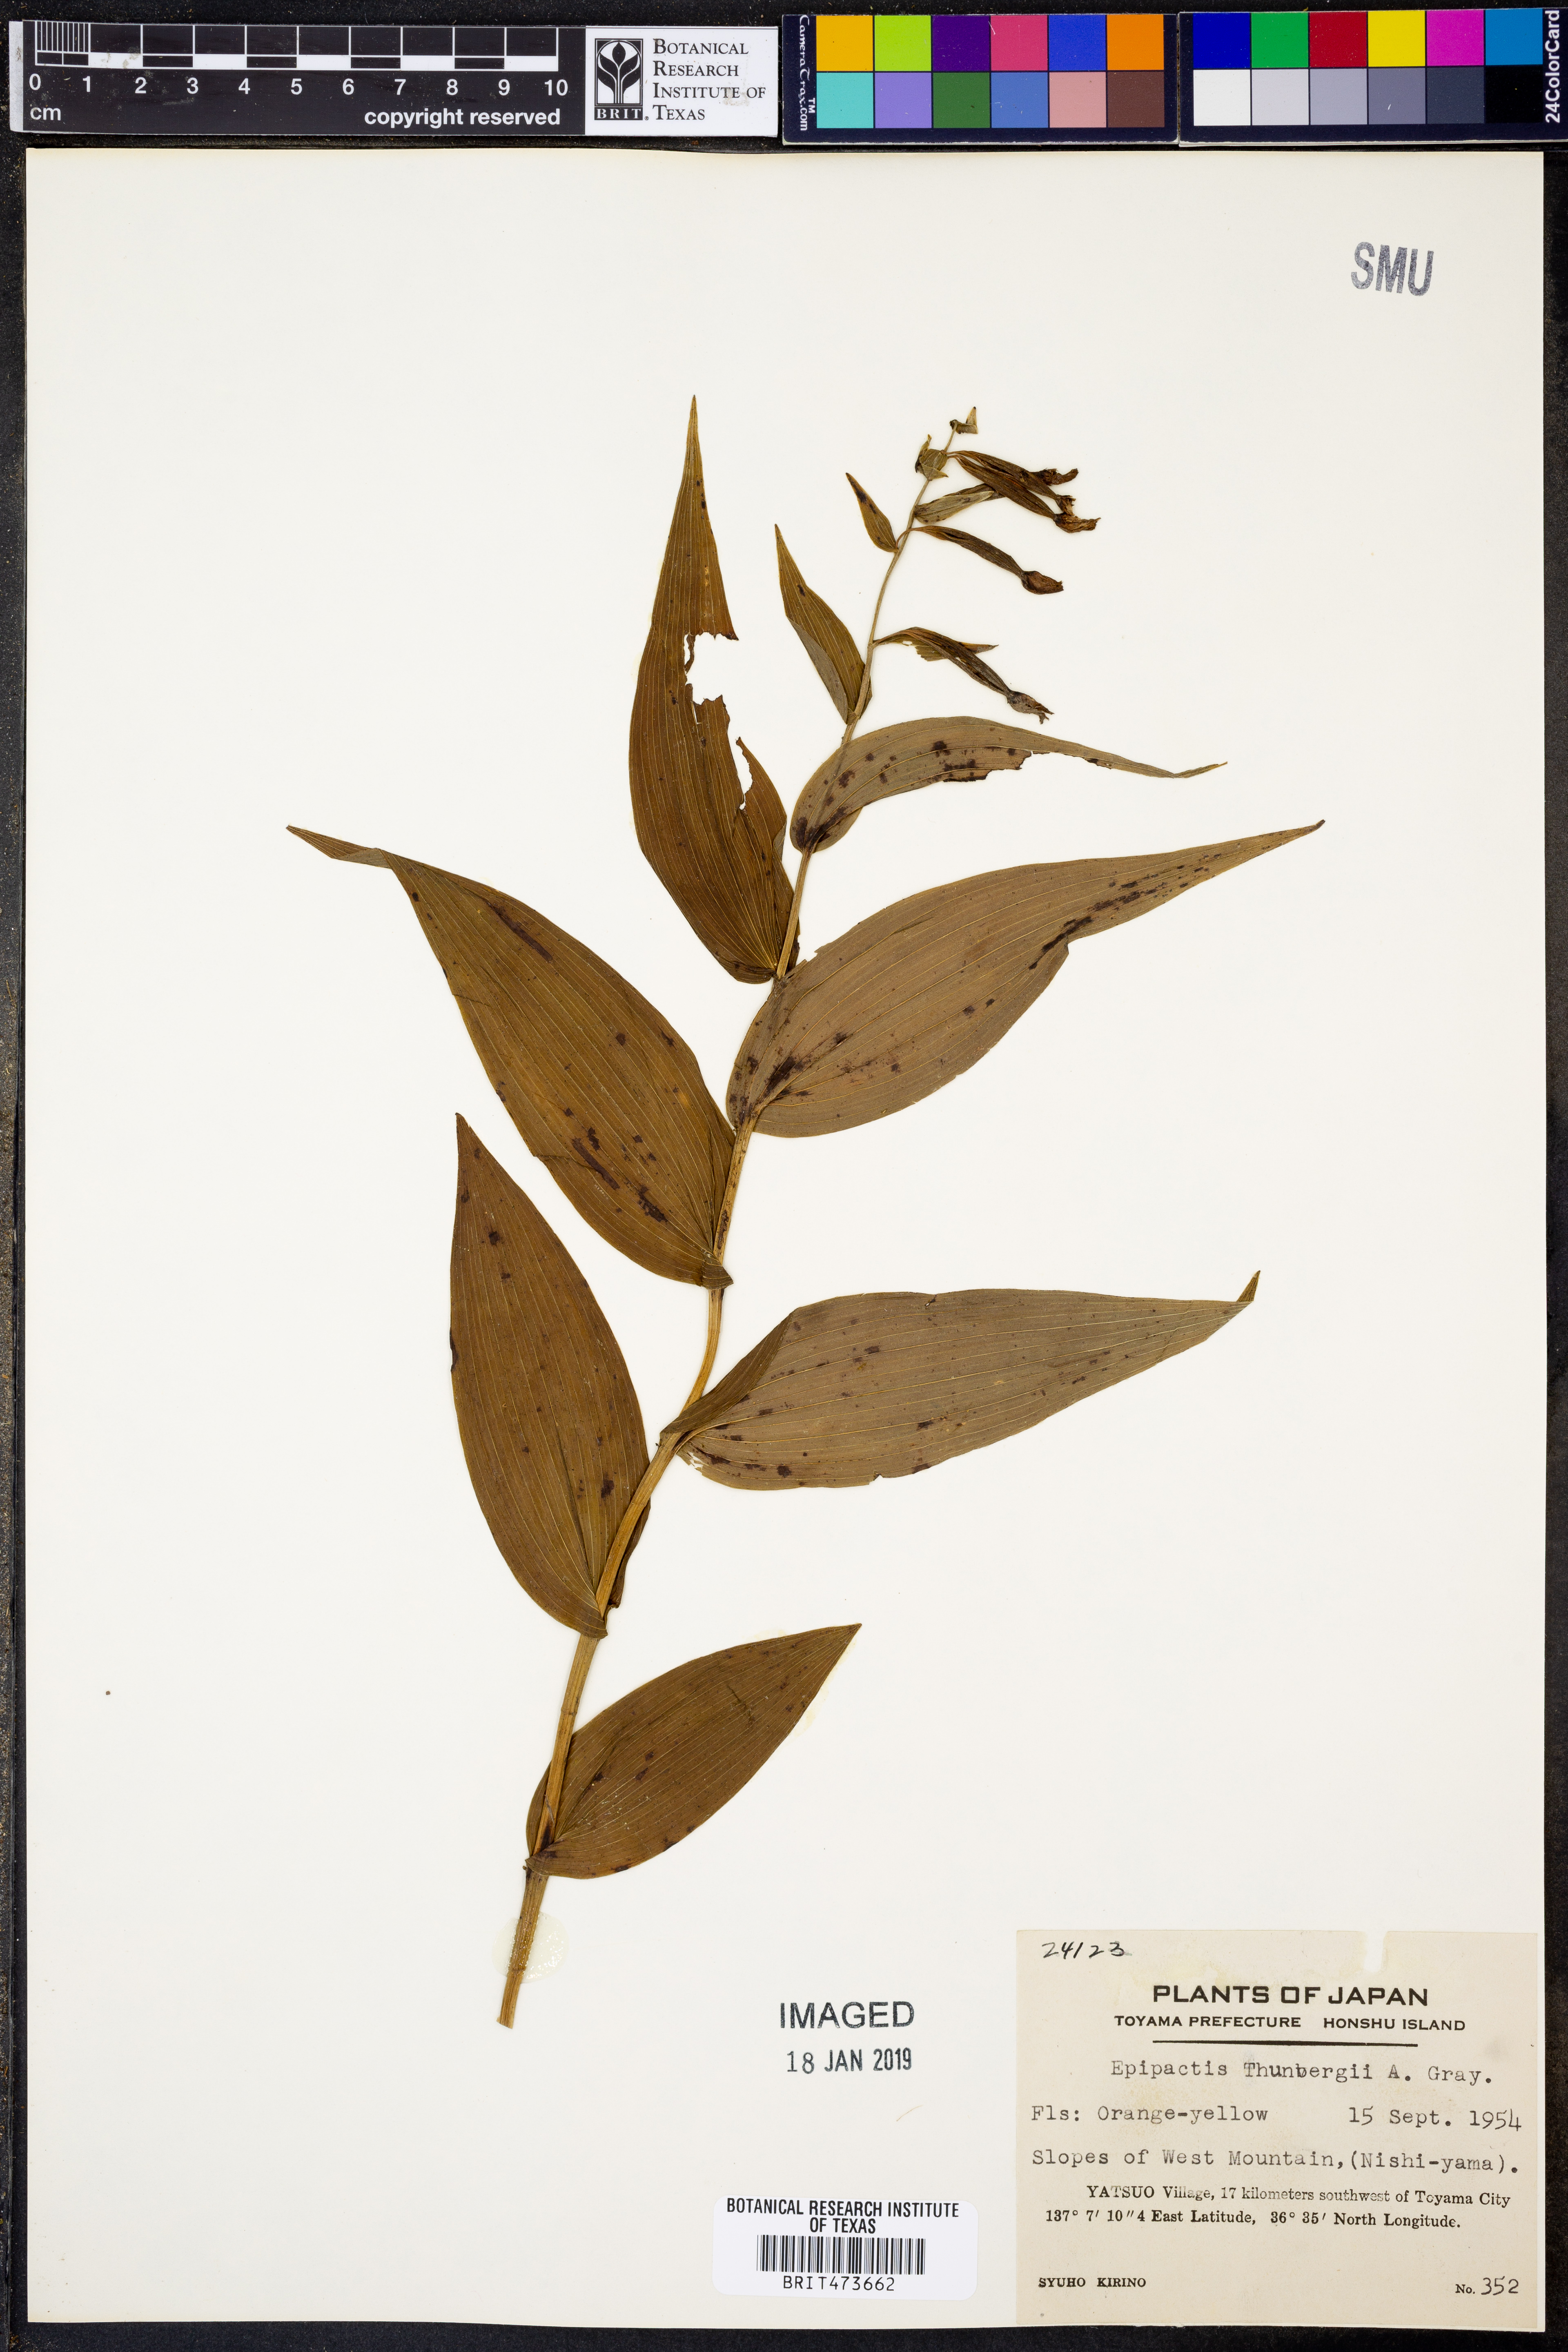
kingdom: Plantae
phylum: Tracheophyta
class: Liliopsida
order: Asparagales
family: Orchidaceae
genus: Epipactis
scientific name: Epipactis thunbergii
